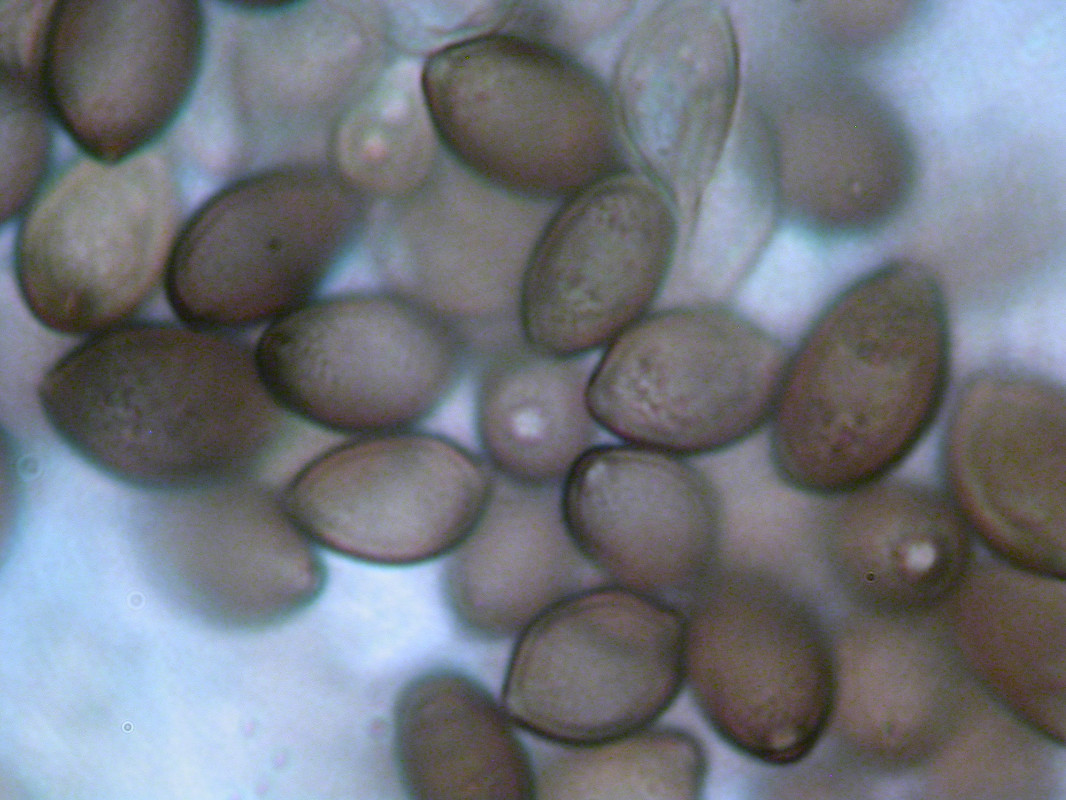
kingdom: Fungi
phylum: Basidiomycota
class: Agaricomycetes
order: Agaricales
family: Strophariaceae
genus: Deconica
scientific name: Deconica coprophila
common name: gødnings-stråhat
